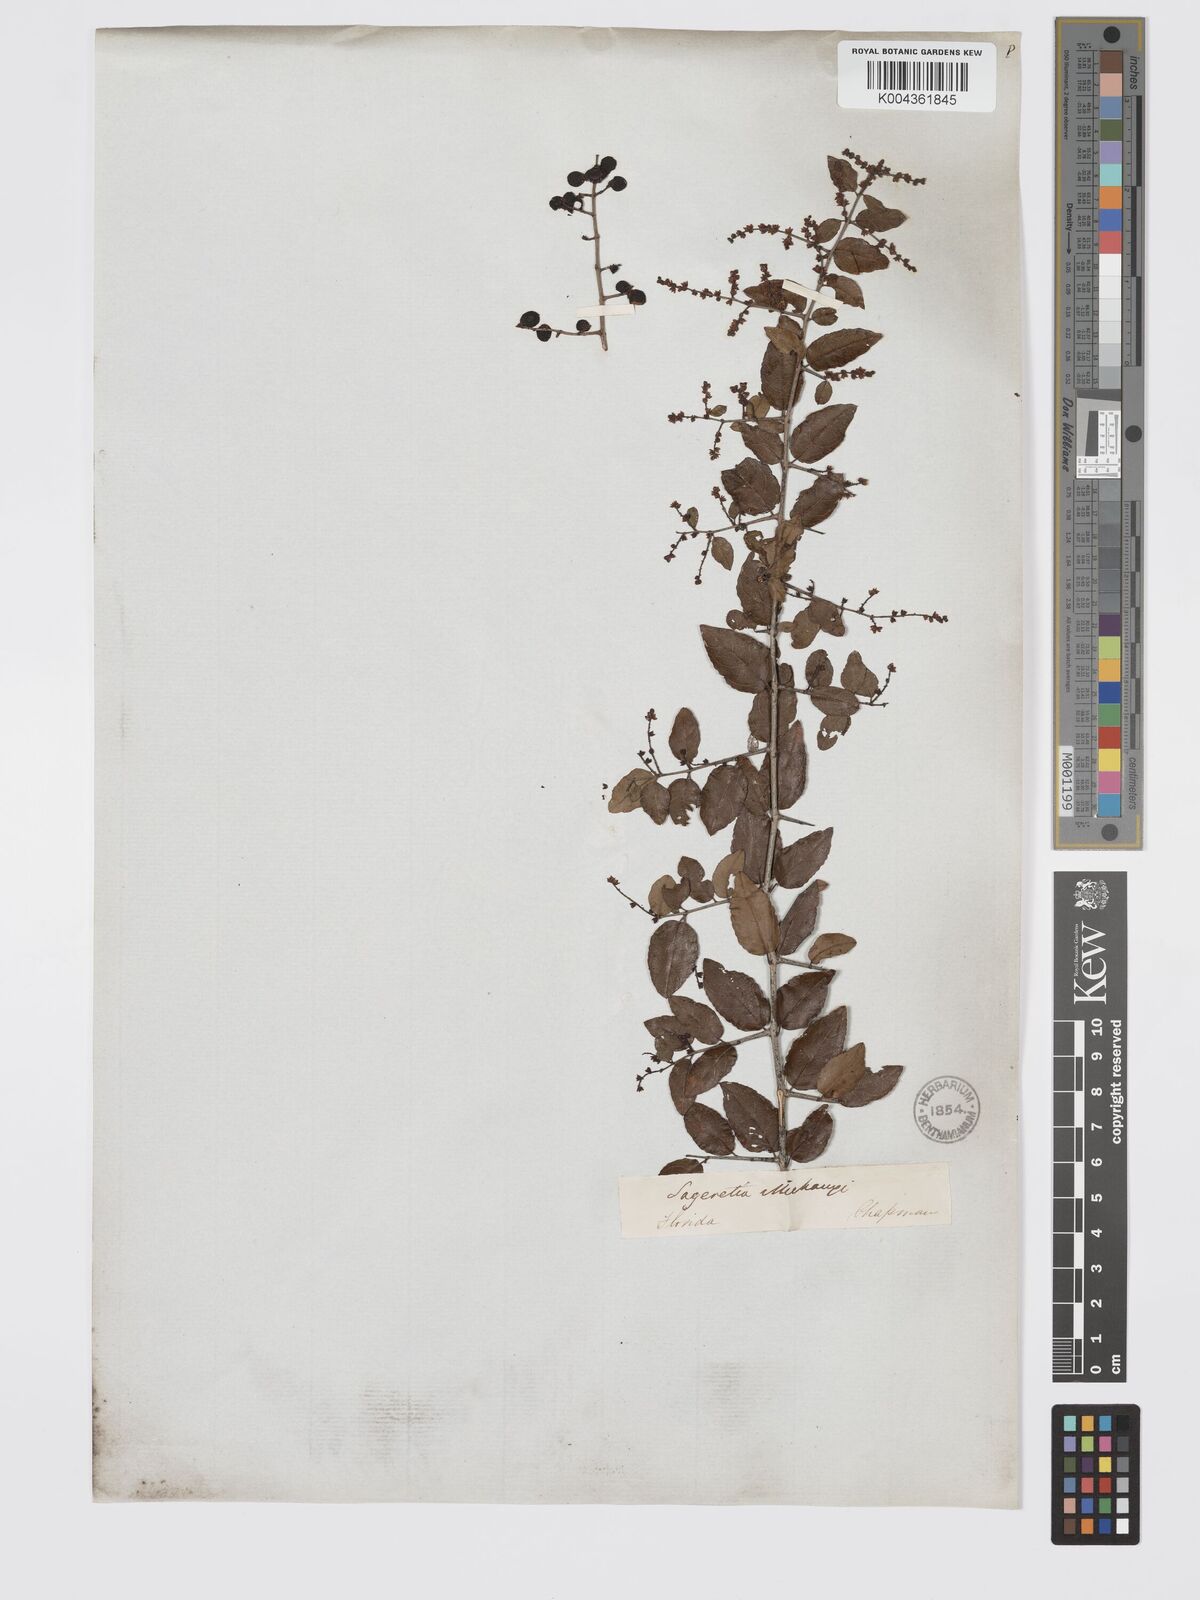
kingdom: Plantae
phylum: Tracheophyta
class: Magnoliopsida
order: Rosales
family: Rhamnaceae
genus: Sageretia
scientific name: Sageretia minutiflora
